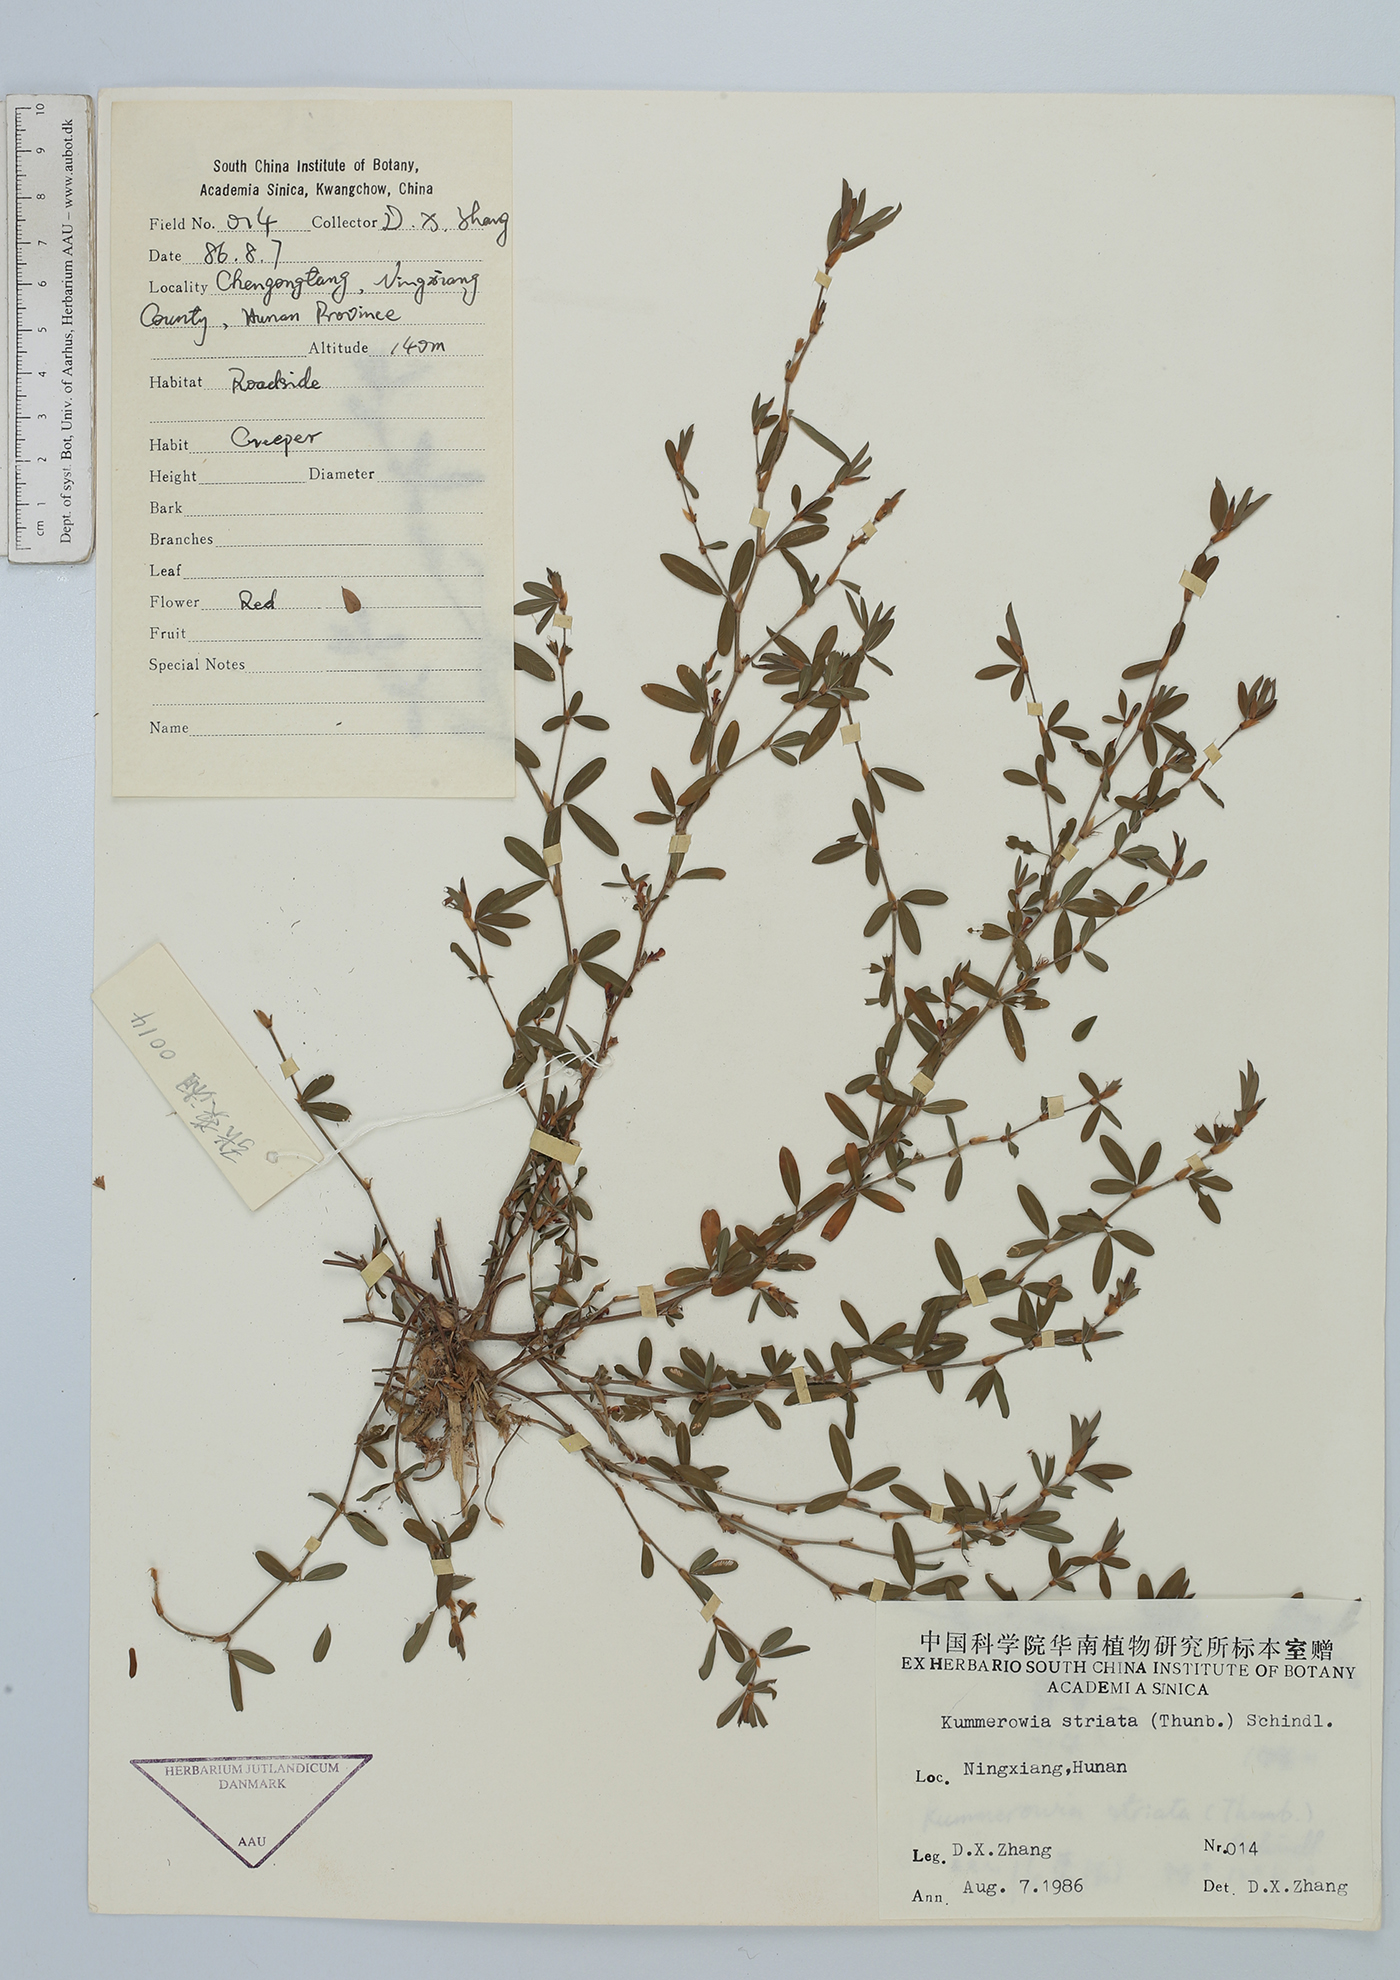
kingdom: Plantae
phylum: Tracheophyta
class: Magnoliopsida
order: Fabales
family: Fabaceae
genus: Kummerowia
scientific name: Kummerowia striata
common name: Japanese clover
